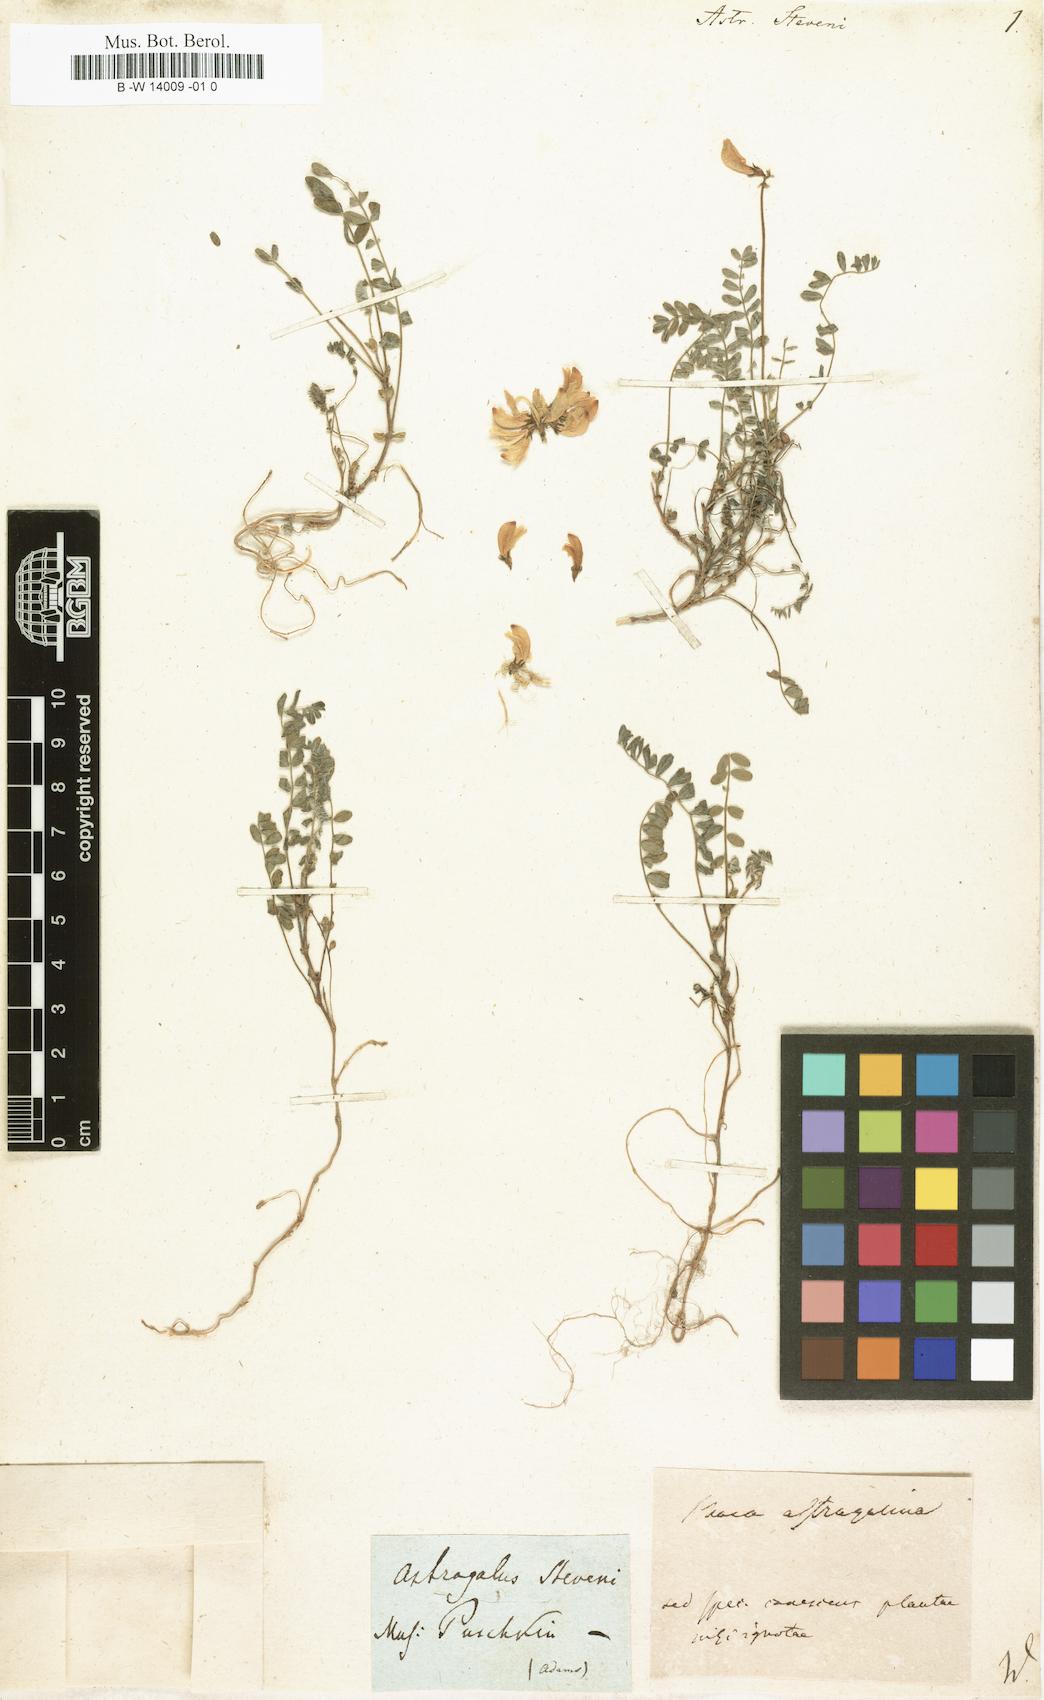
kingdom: Plantae
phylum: Tracheophyta
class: Magnoliopsida
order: Fabales
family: Fabaceae
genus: Astragalus
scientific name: Astragalus
